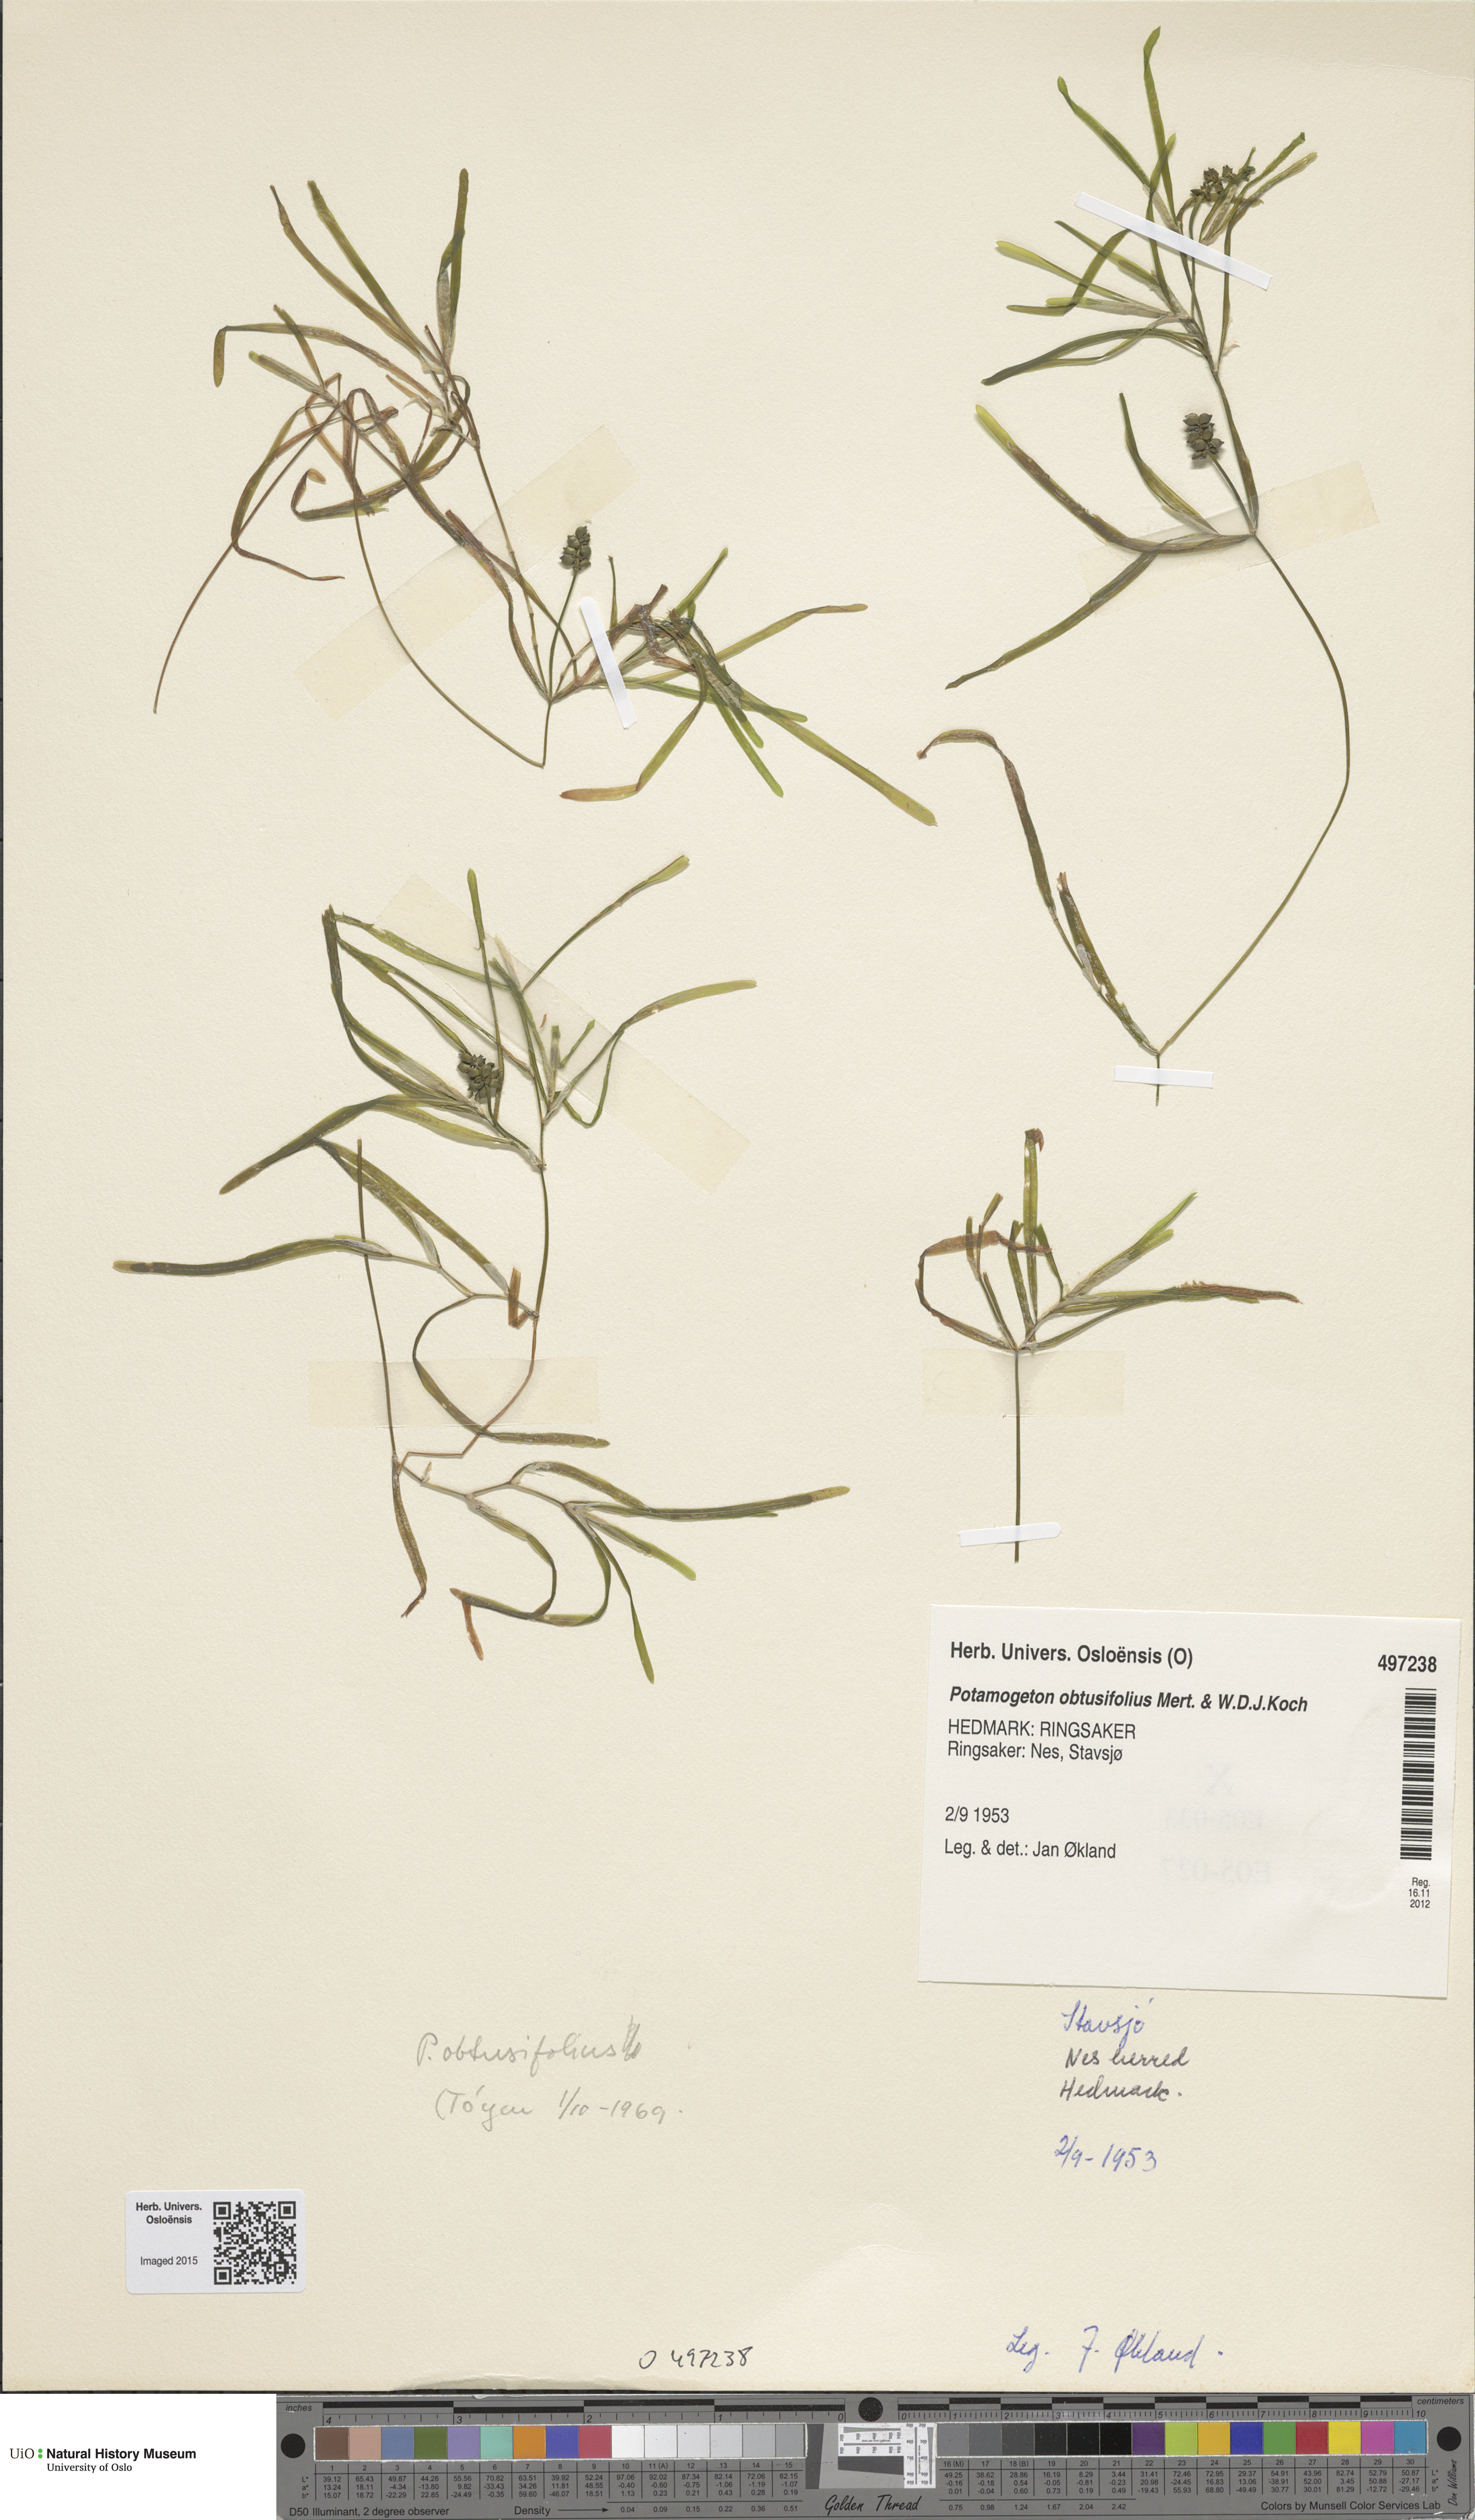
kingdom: Plantae
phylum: Tracheophyta
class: Liliopsida
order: Alismatales
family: Potamogetonaceae
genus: Potamogeton
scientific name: Potamogeton obtusifolius
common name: Blunt-leaved pondweed
